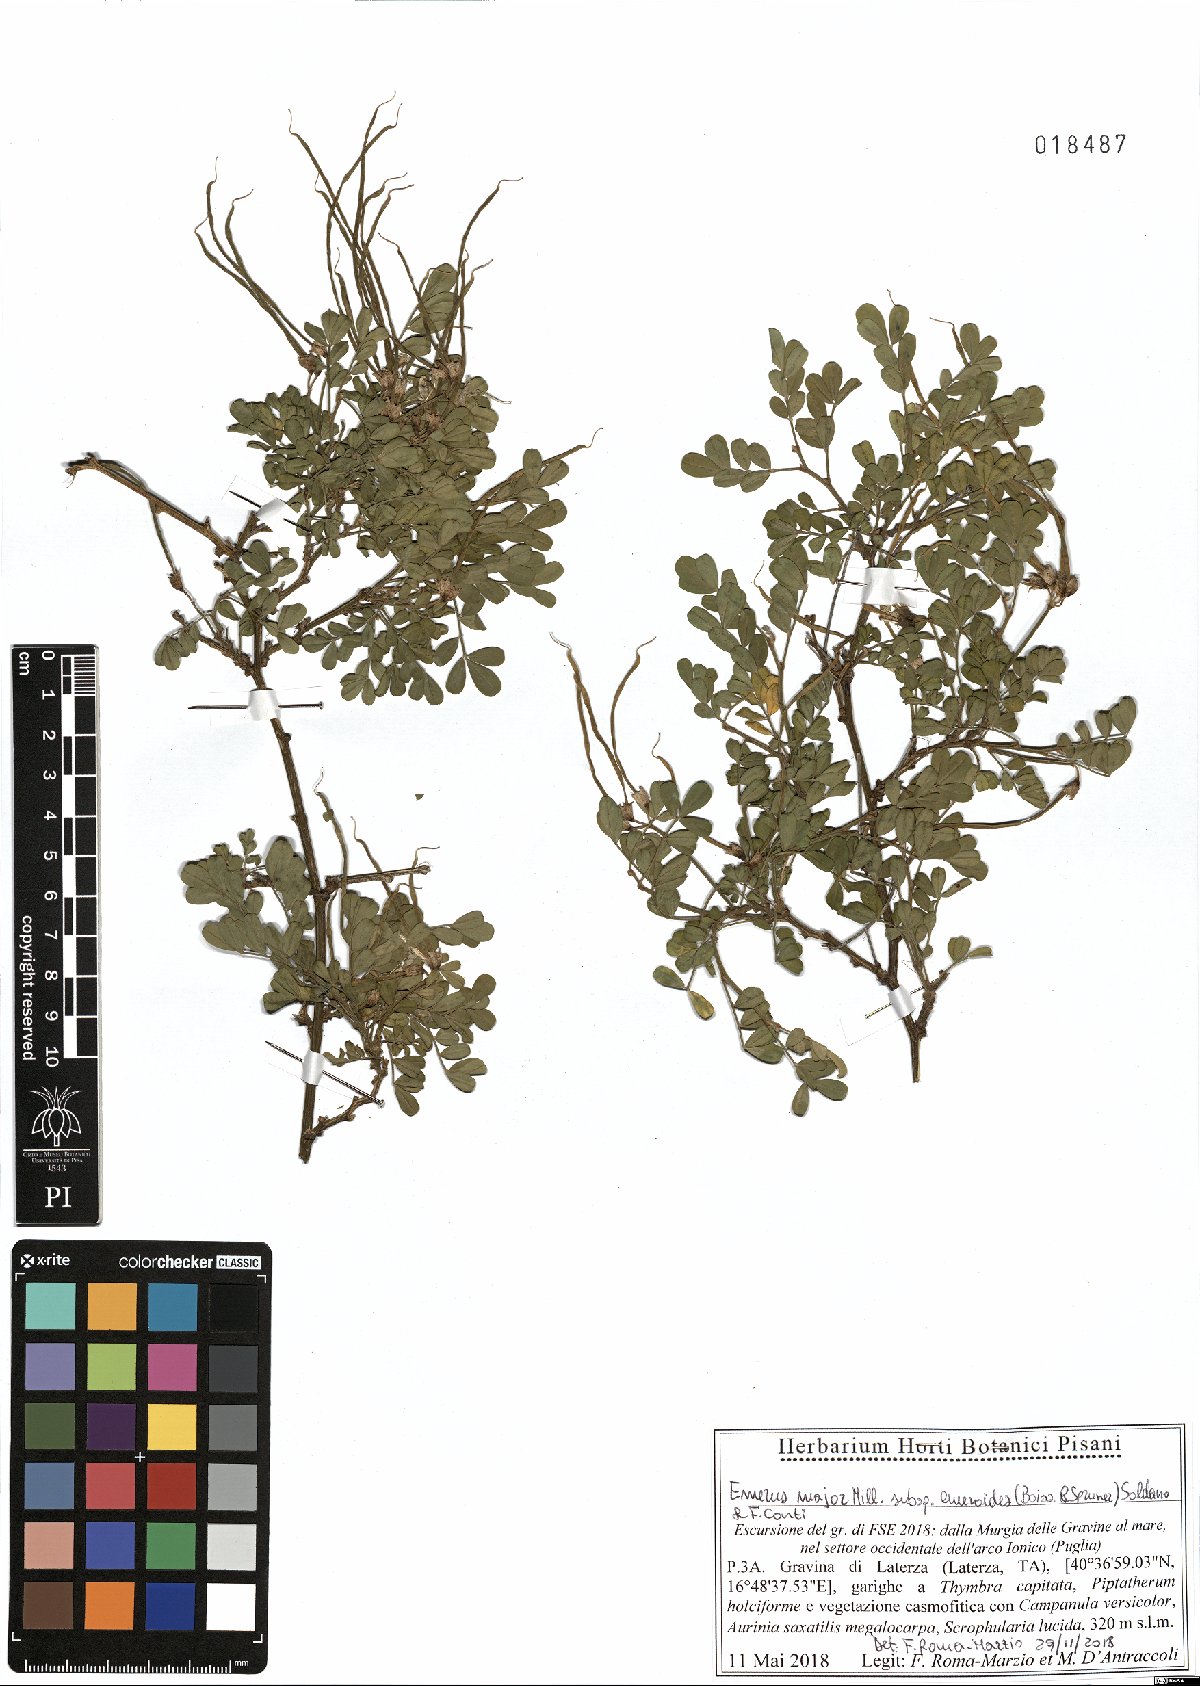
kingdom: Plantae
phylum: Tracheophyta
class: Magnoliopsida
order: Fabales
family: Fabaceae
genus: Hippocrepis
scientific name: Hippocrepis emerus
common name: Scorpion senna
